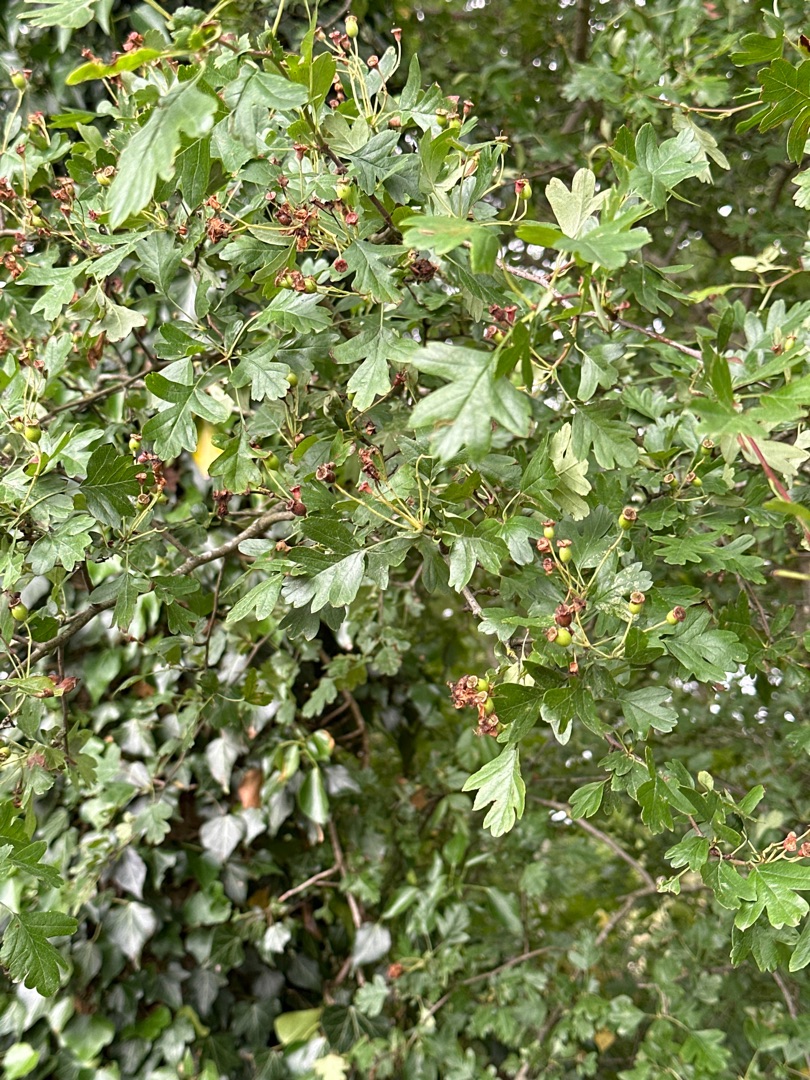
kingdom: Plantae
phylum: Tracheophyta
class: Magnoliopsida
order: Rosales
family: Rosaceae
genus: Crataegus
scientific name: Crataegus monogyna
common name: Engriflet hvidtjørn
